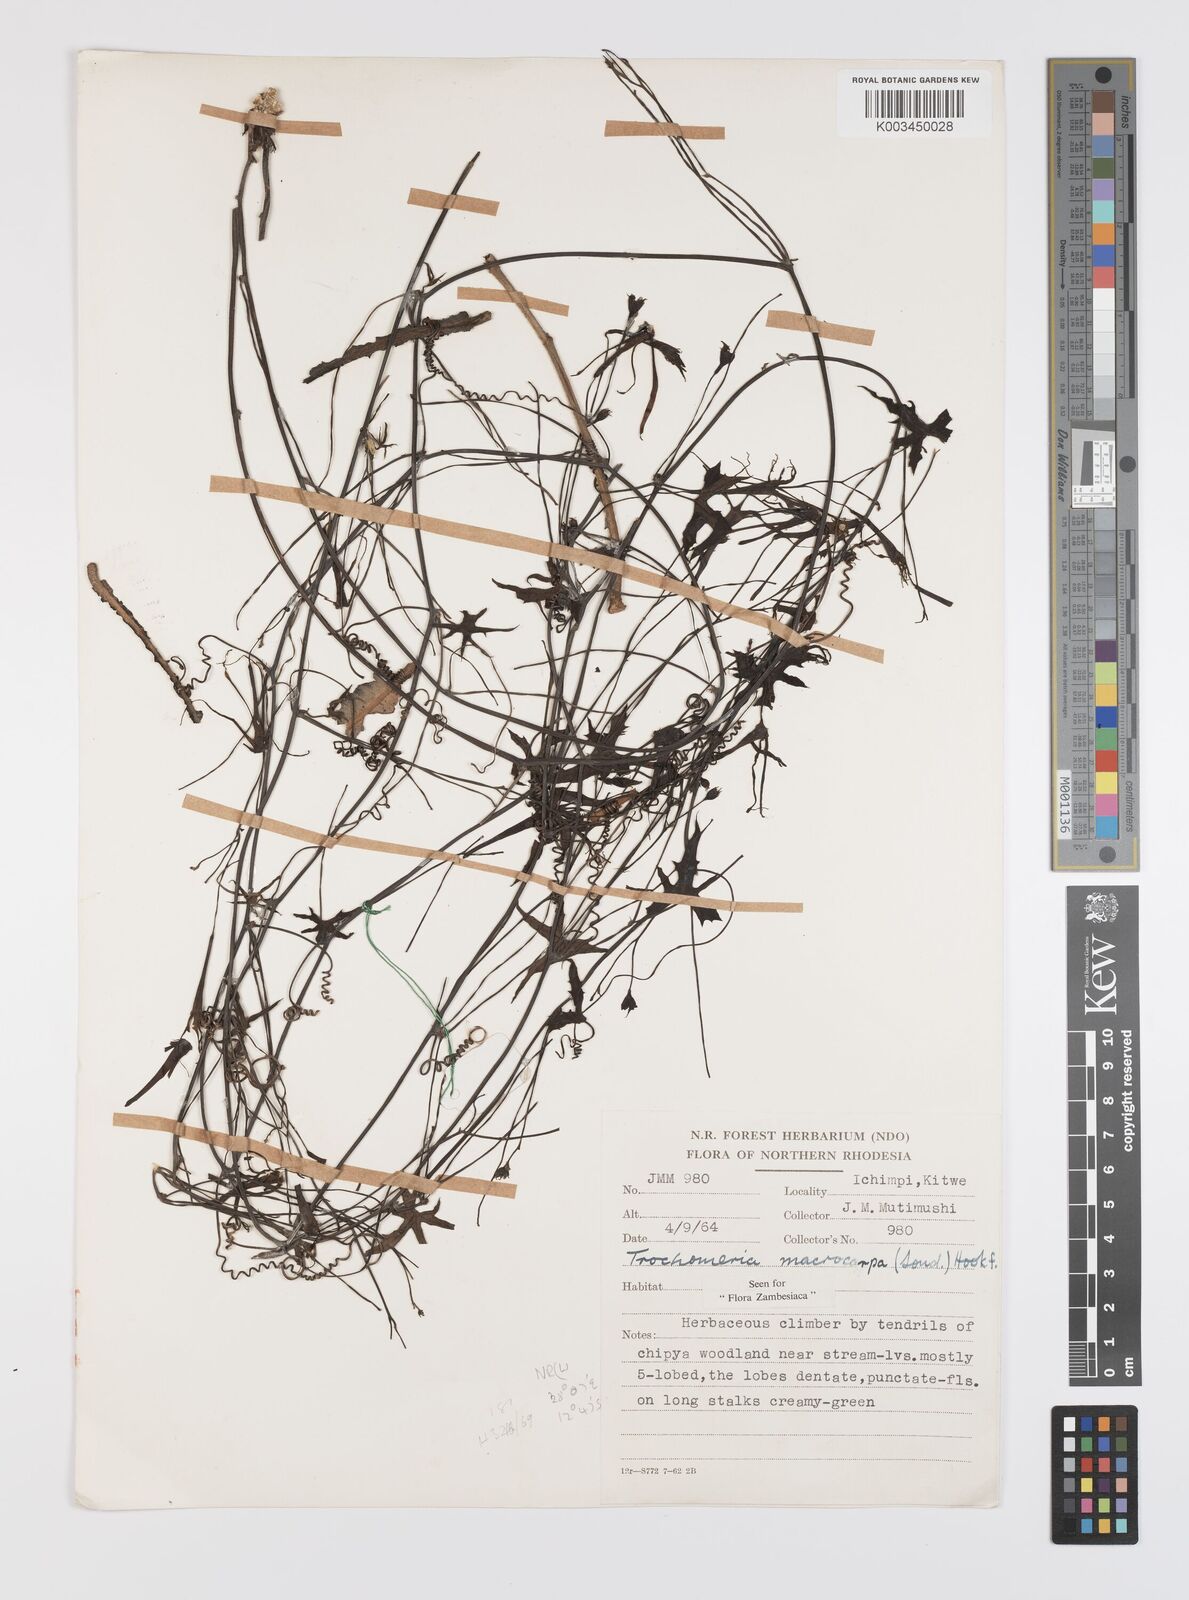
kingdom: Plantae
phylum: Tracheophyta
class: Magnoliopsida
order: Cucurbitales
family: Cucurbitaceae
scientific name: Cucurbitaceae
